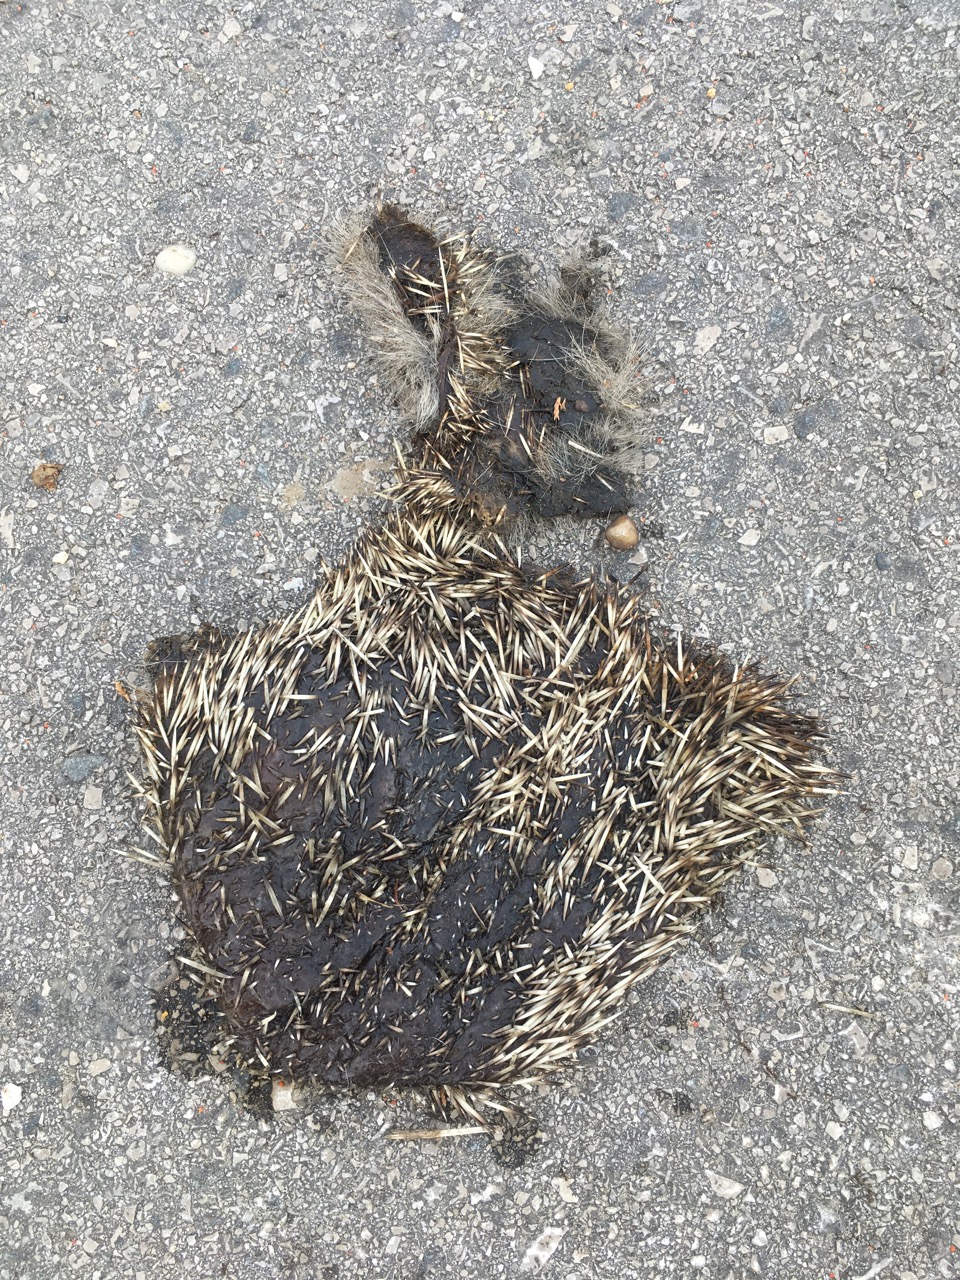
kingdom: Animalia
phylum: Chordata
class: Mammalia
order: Erinaceomorpha
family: Erinaceidae
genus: Erinaceus
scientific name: Erinaceus
